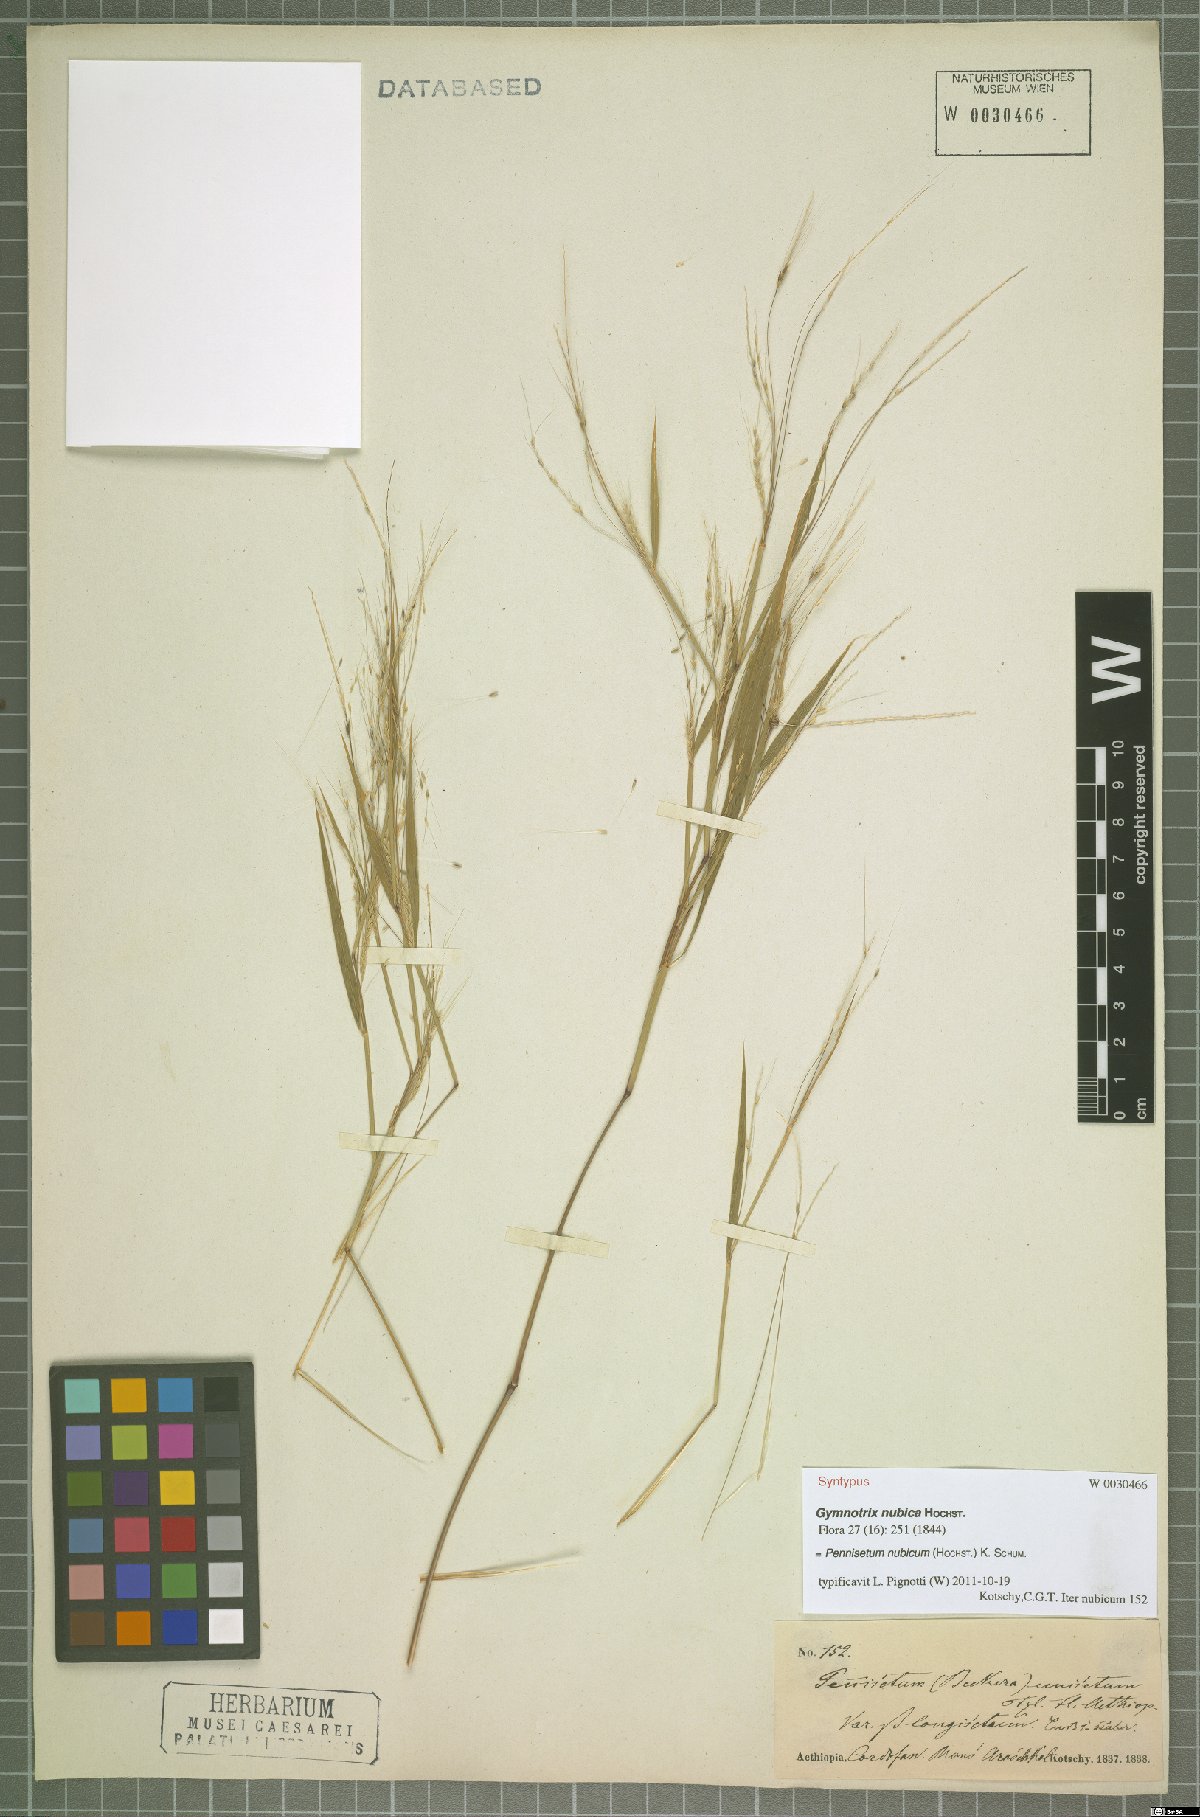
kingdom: Plantae
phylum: Tracheophyta
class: Liliopsida
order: Poales
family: Poaceae
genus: Cenchrus
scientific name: Cenchrus nubicus
